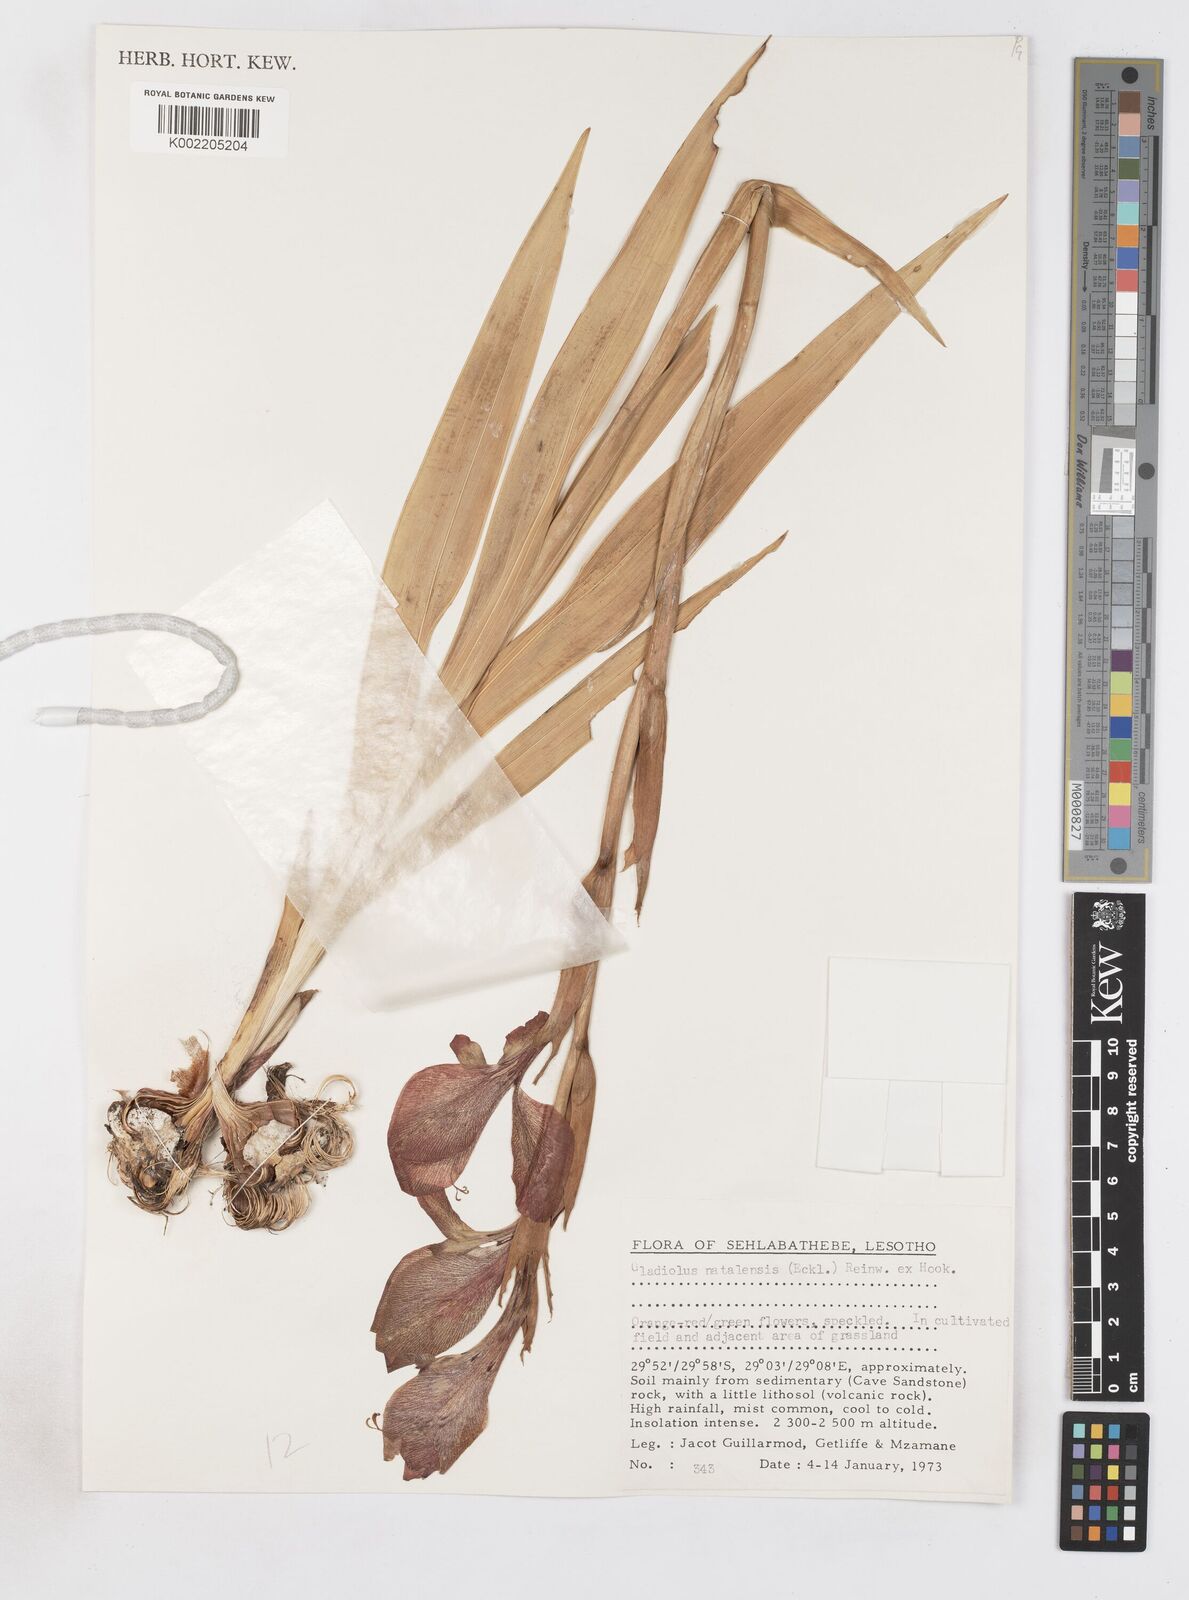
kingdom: Plantae
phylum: Tracheophyta
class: Liliopsida
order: Asparagales
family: Iridaceae
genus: Gladiolus
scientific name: Gladiolus dalenii
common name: Cornflag
